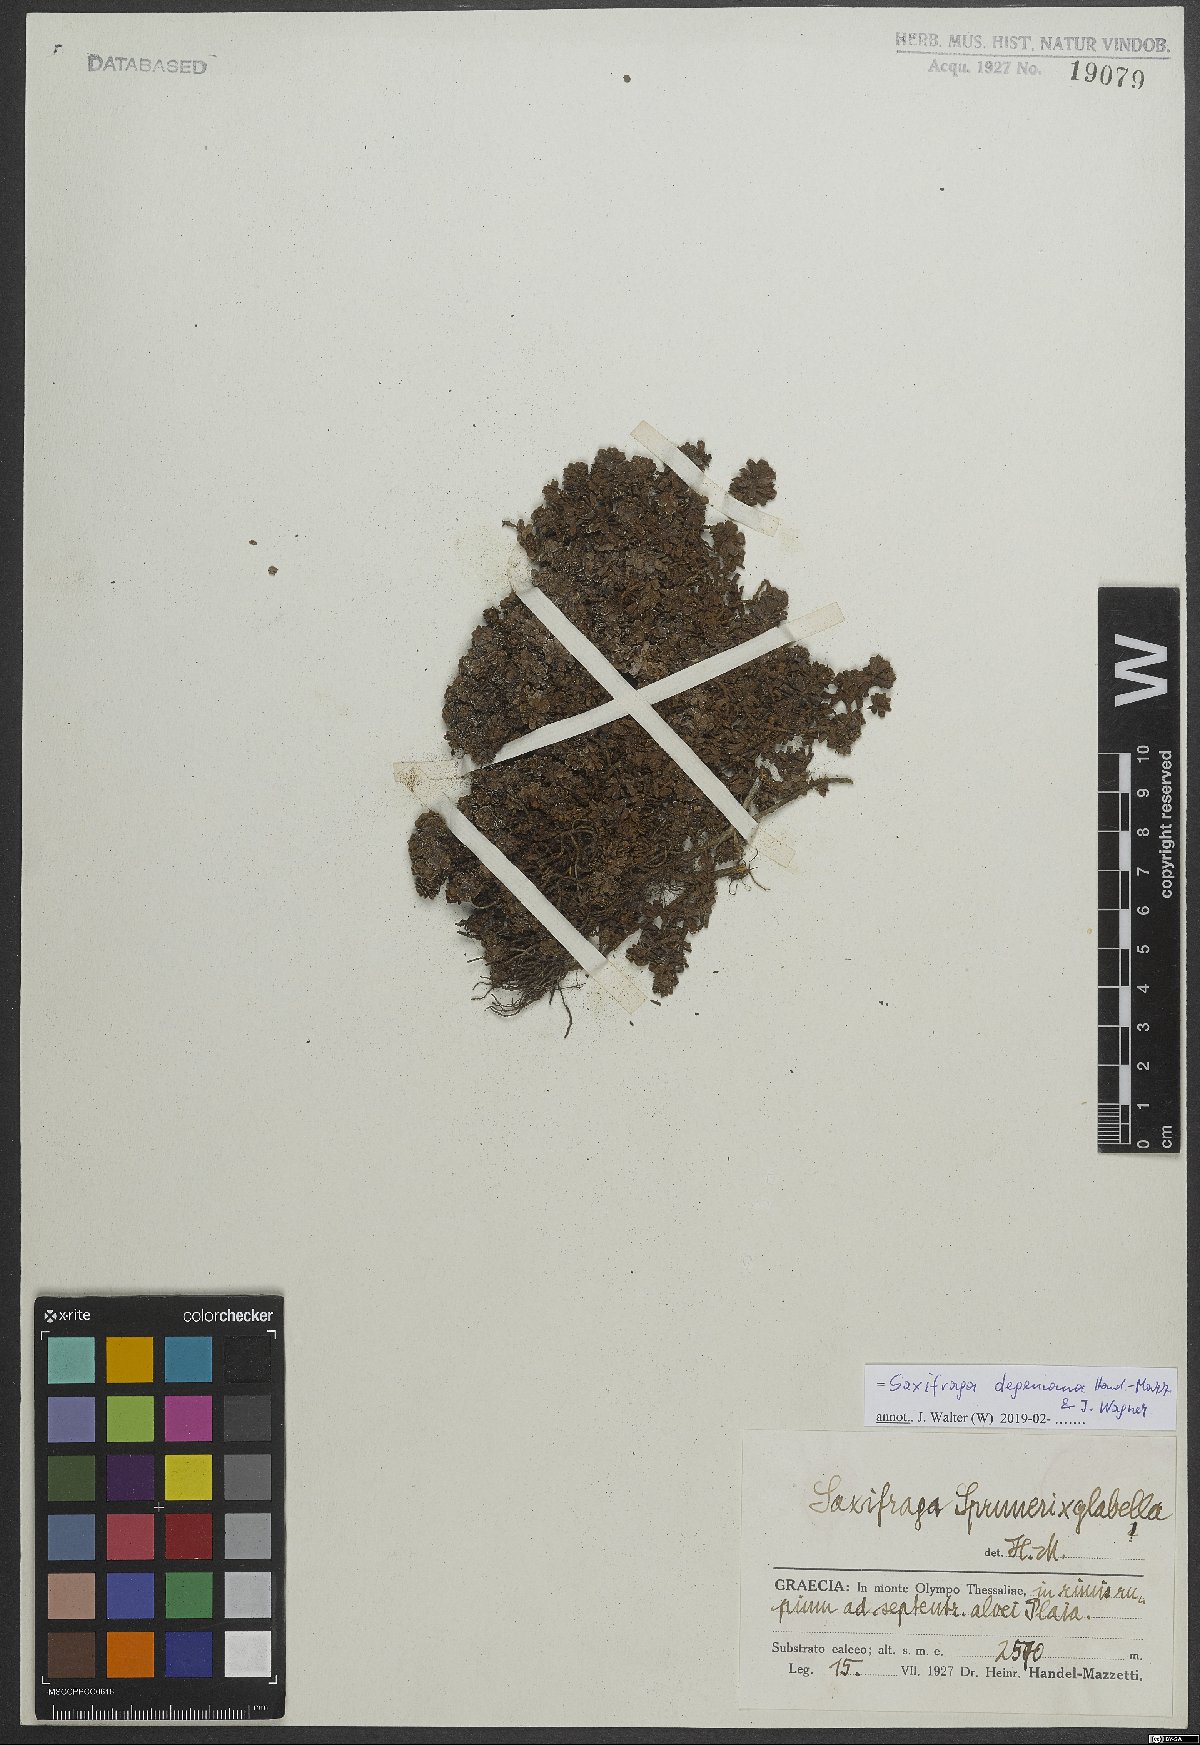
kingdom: Plantae
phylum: Tracheophyta
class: Magnoliopsida
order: Saxifragales
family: Saxifragaceae
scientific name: Saxifragaceae
